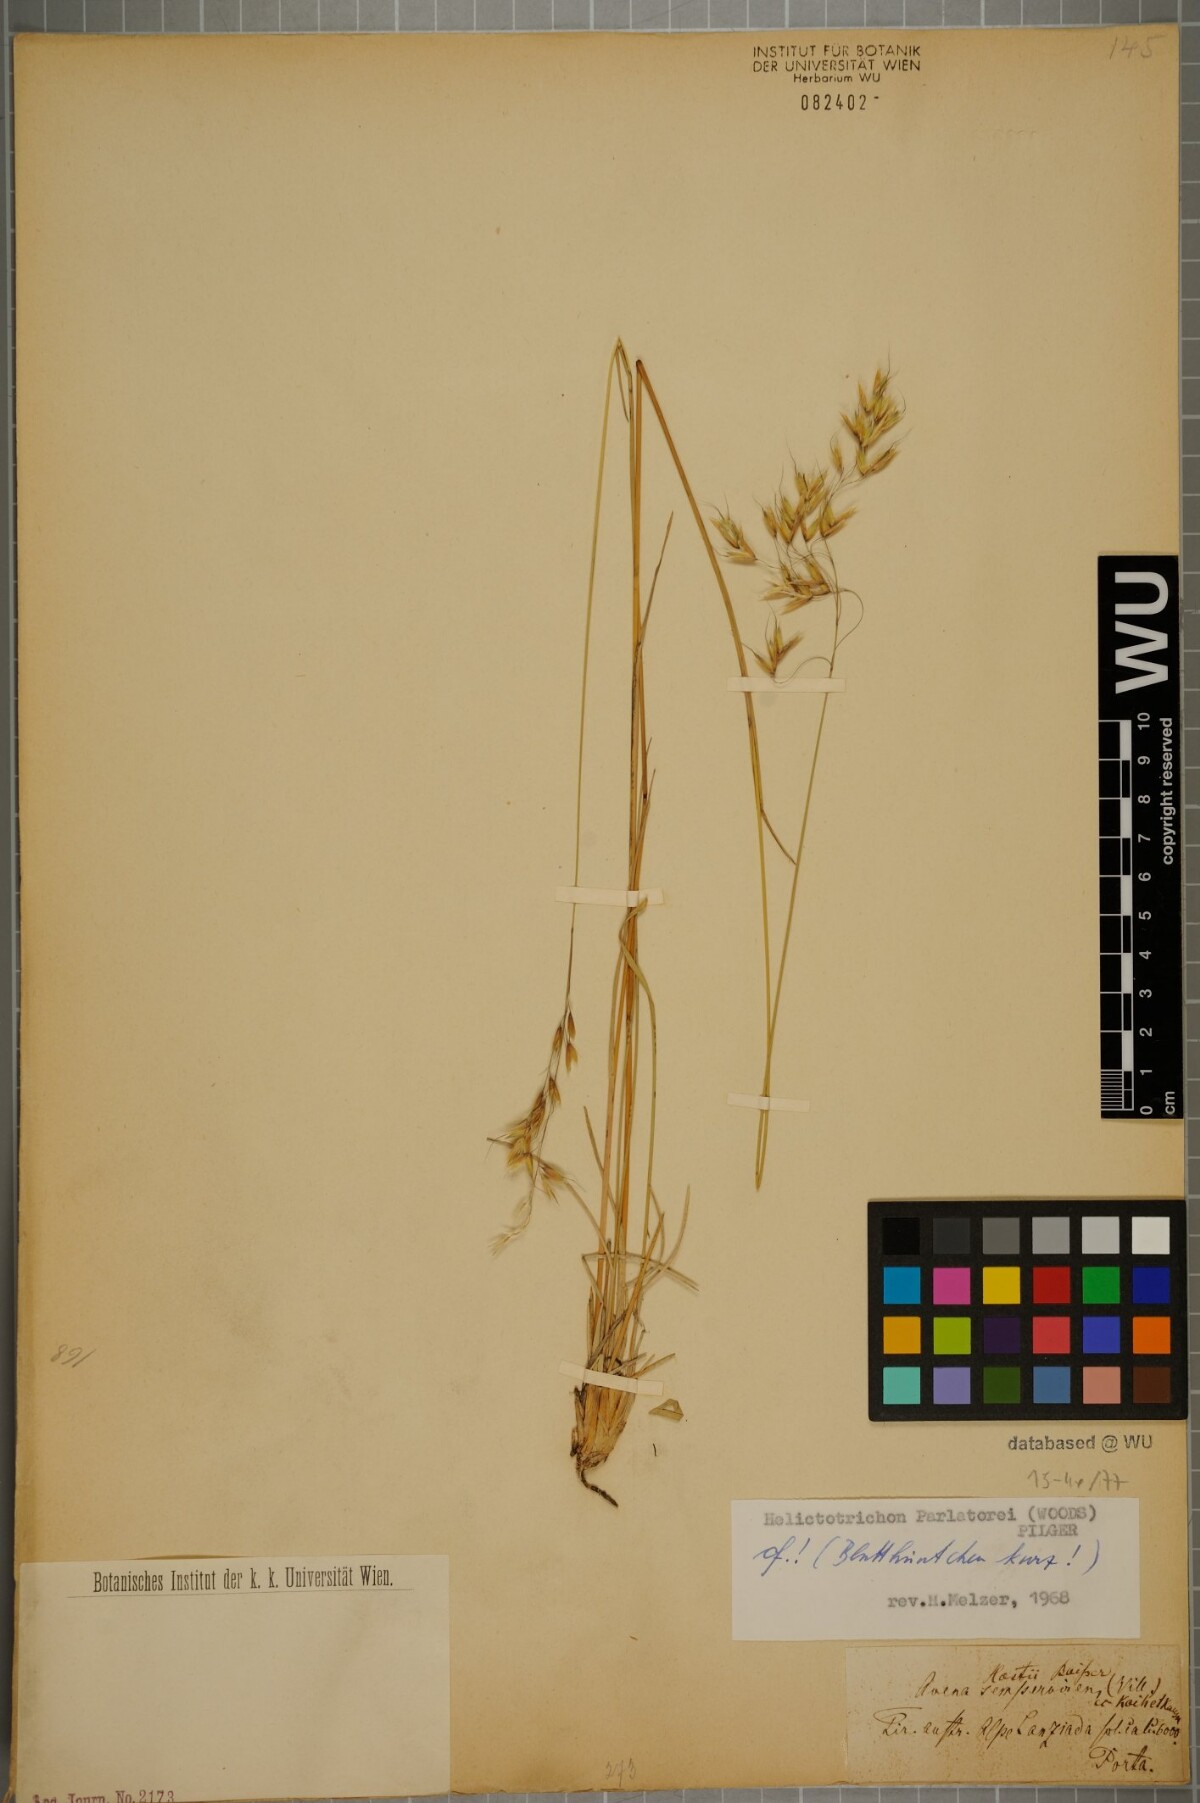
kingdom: Plantae
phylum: Tracheophyta
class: Liliopsida
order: Poales
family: Poaceae
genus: Helictotrichon
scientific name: Helictotrichon parlatorei
